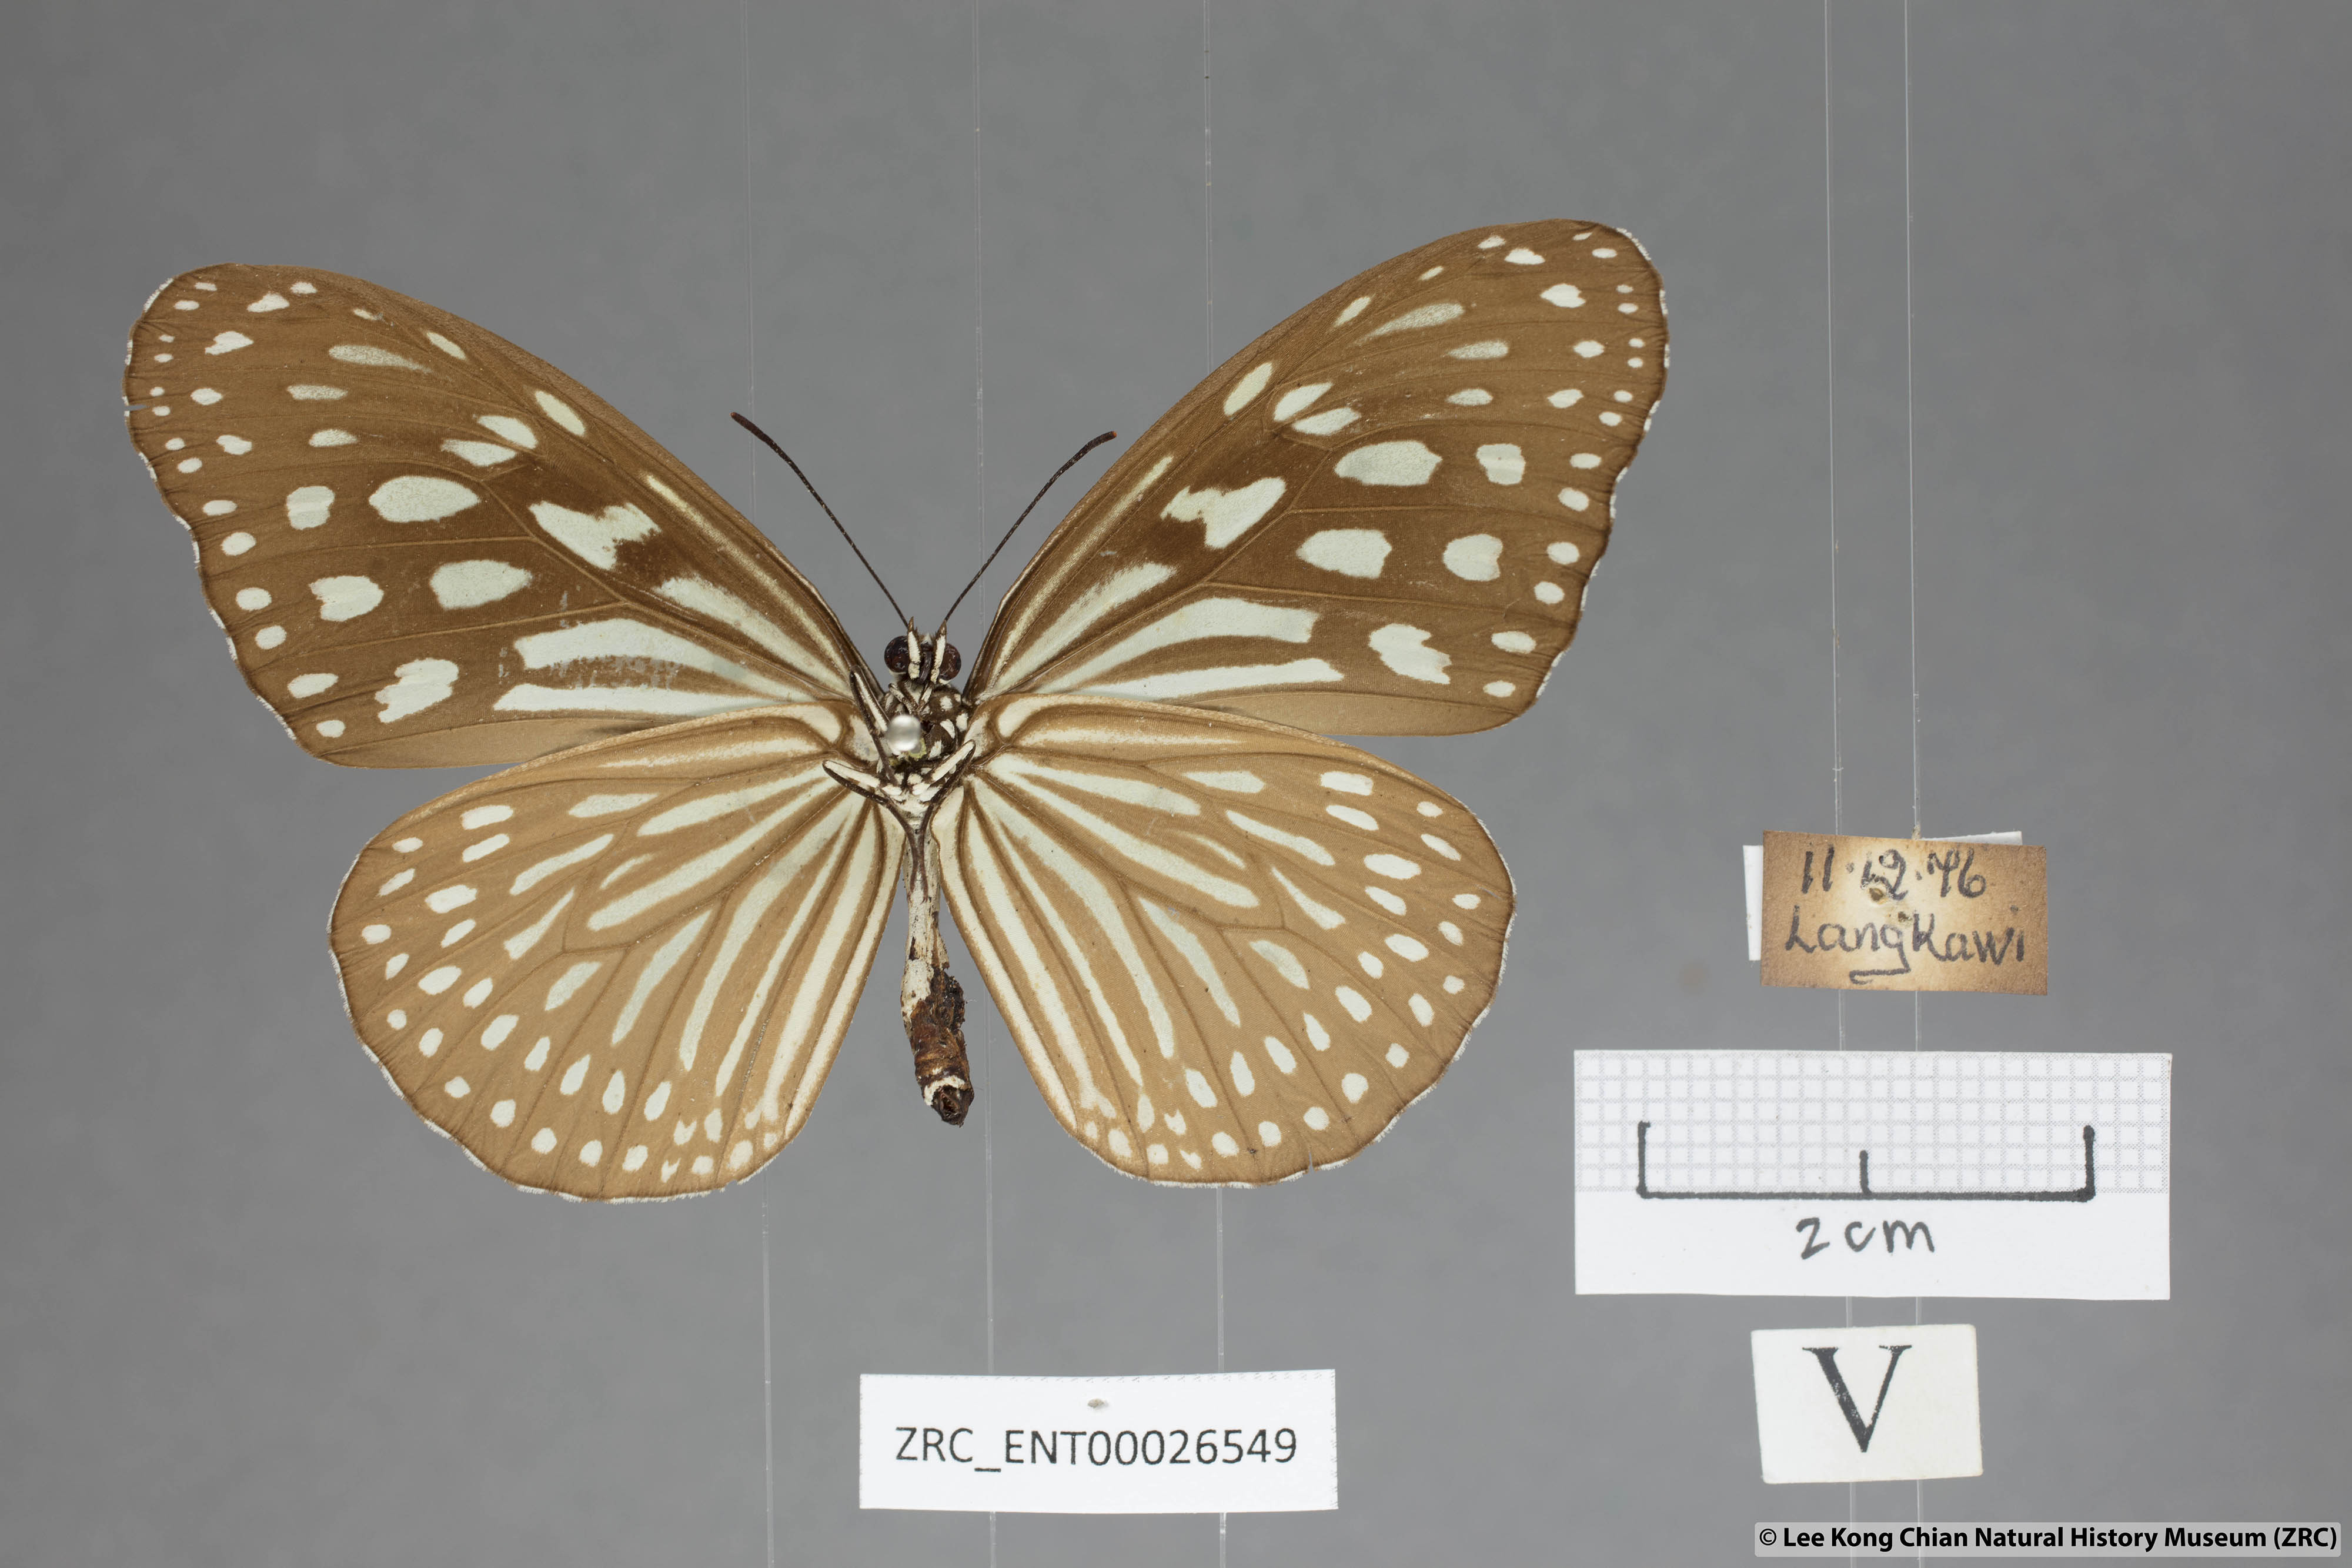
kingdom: Animalia
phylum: Arthropoda
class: Insecta
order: Lepidoptera
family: Nymphalidae
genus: Ideopsis
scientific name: Ideopsis similis
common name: Ceylon blue glassy tiger
